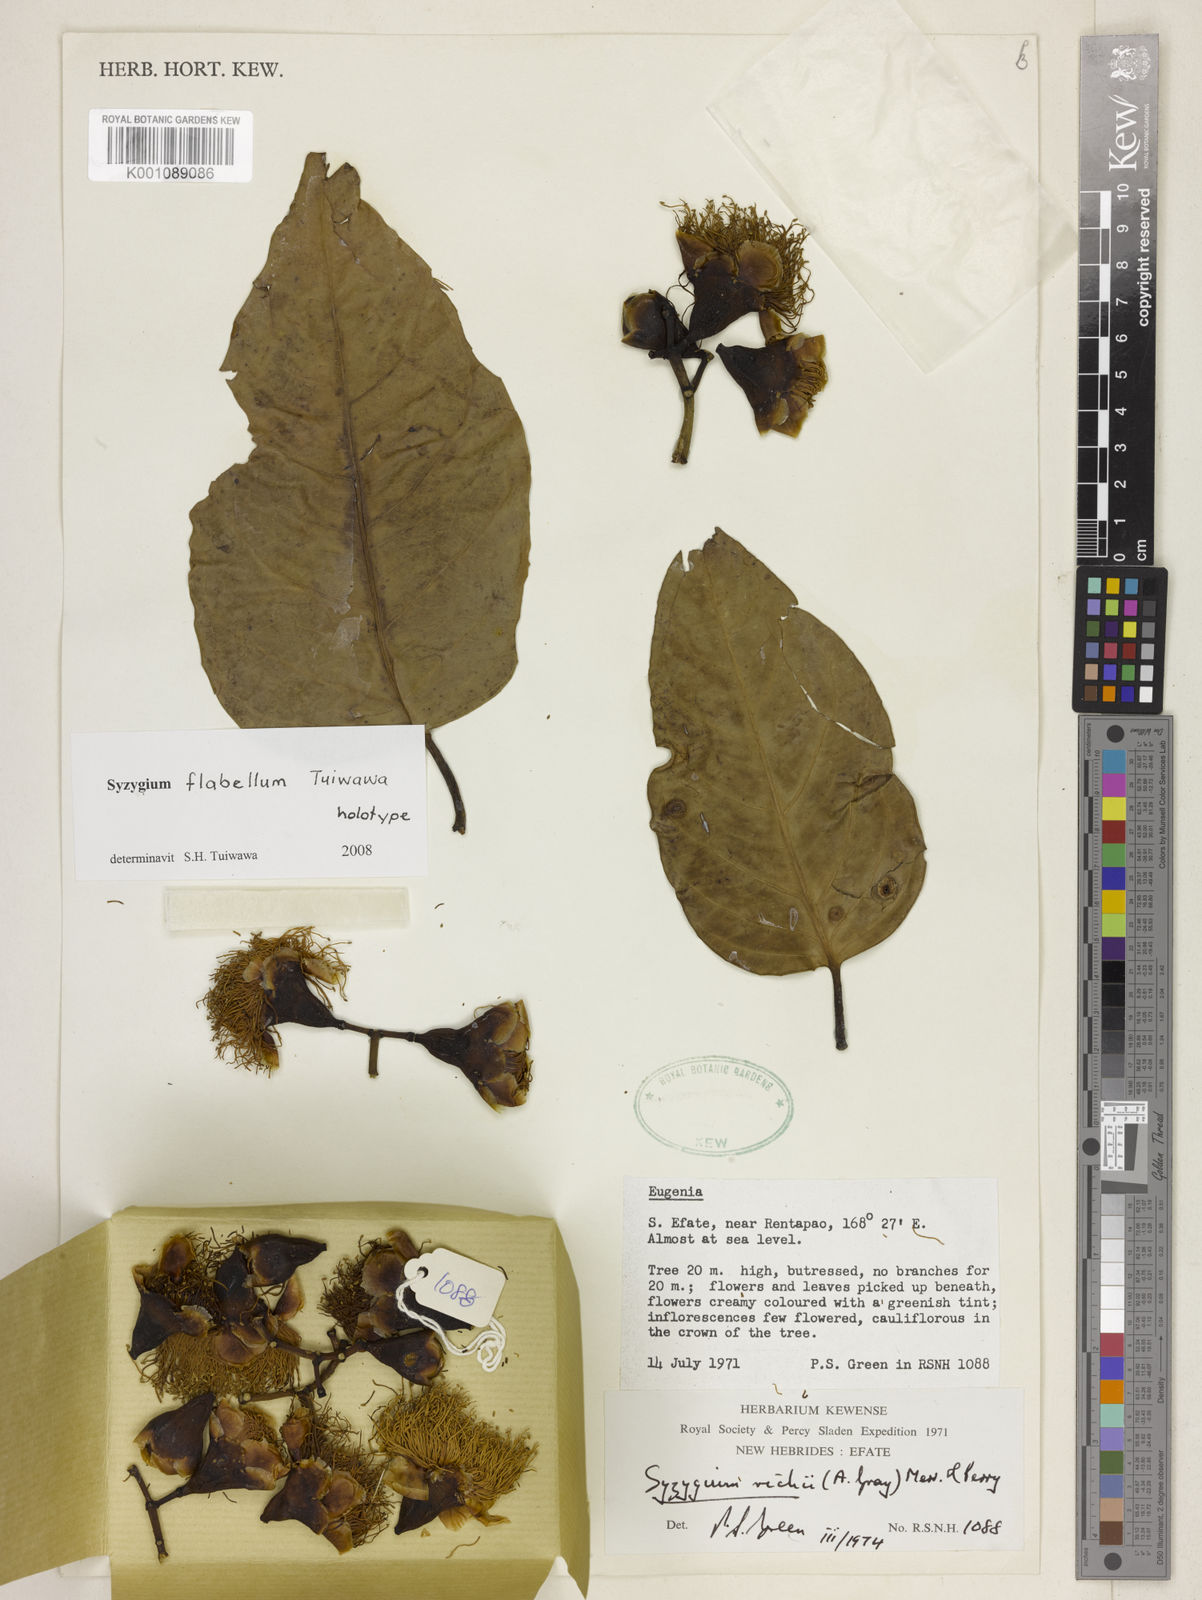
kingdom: Plantae
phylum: Tracheophyta
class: Magnoliopsida
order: Myrtales
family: Myrtaceae
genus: Syzygium
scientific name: Syzygium flabellum
